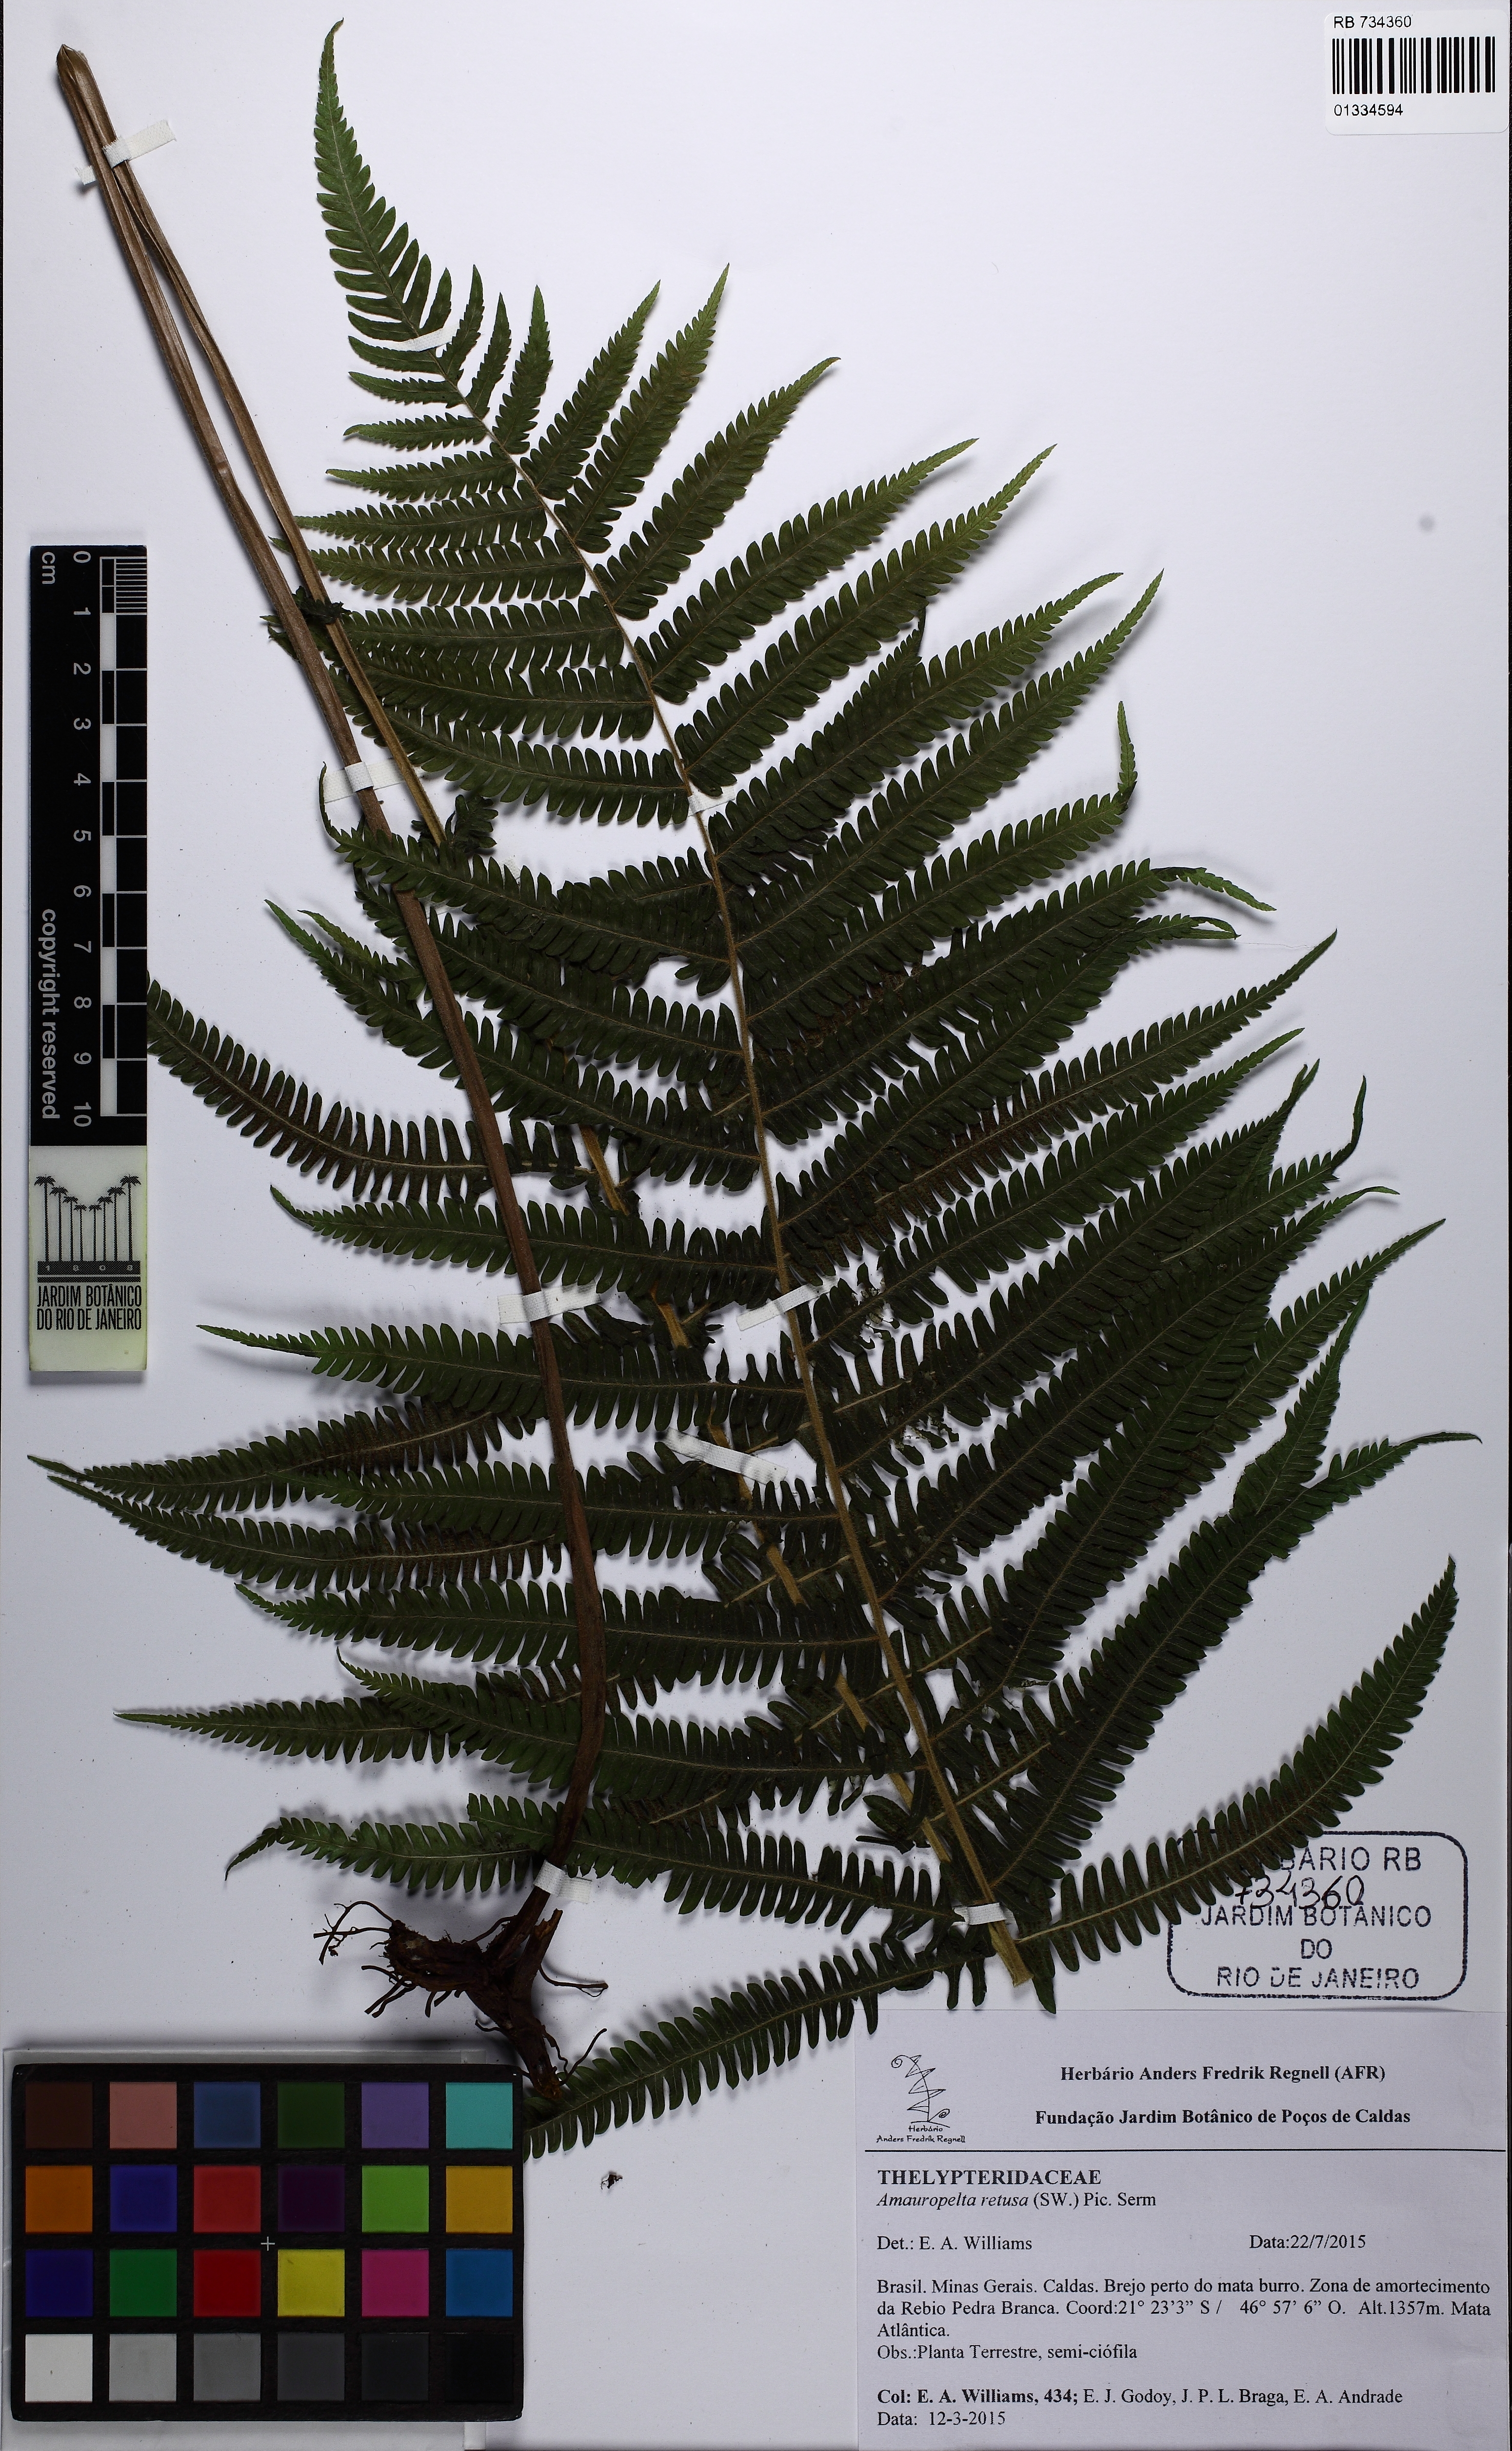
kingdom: Plantae
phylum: Tracheophyta
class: Polypodiopsida
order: Polypodiales
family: Thelypteridaceae
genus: Amauropelta
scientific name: Amauropelta retusa
